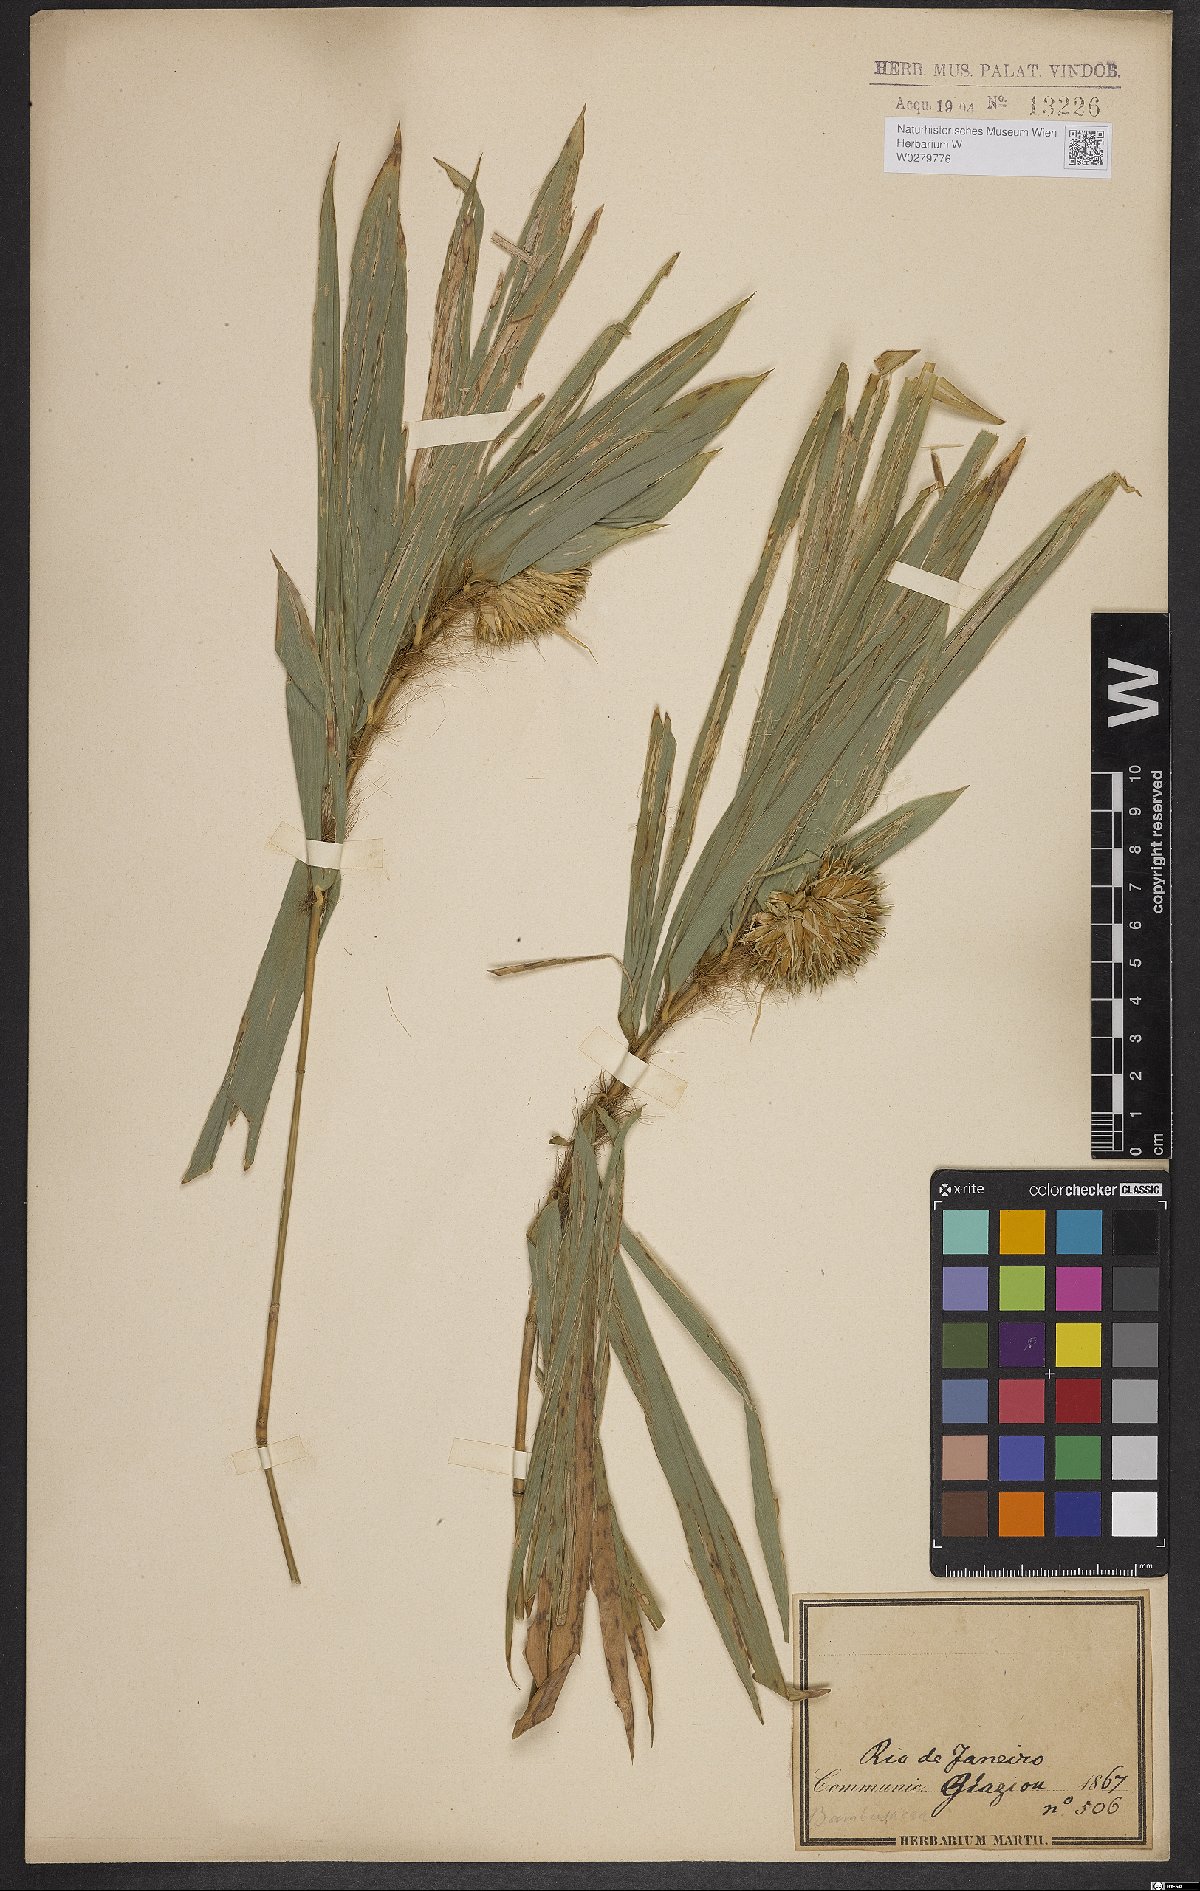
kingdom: Plantae
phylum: Tracheophyta
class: Liliopsida
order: Poales
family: Poaceae
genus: Athroostachys
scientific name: Athroostachys capitata
